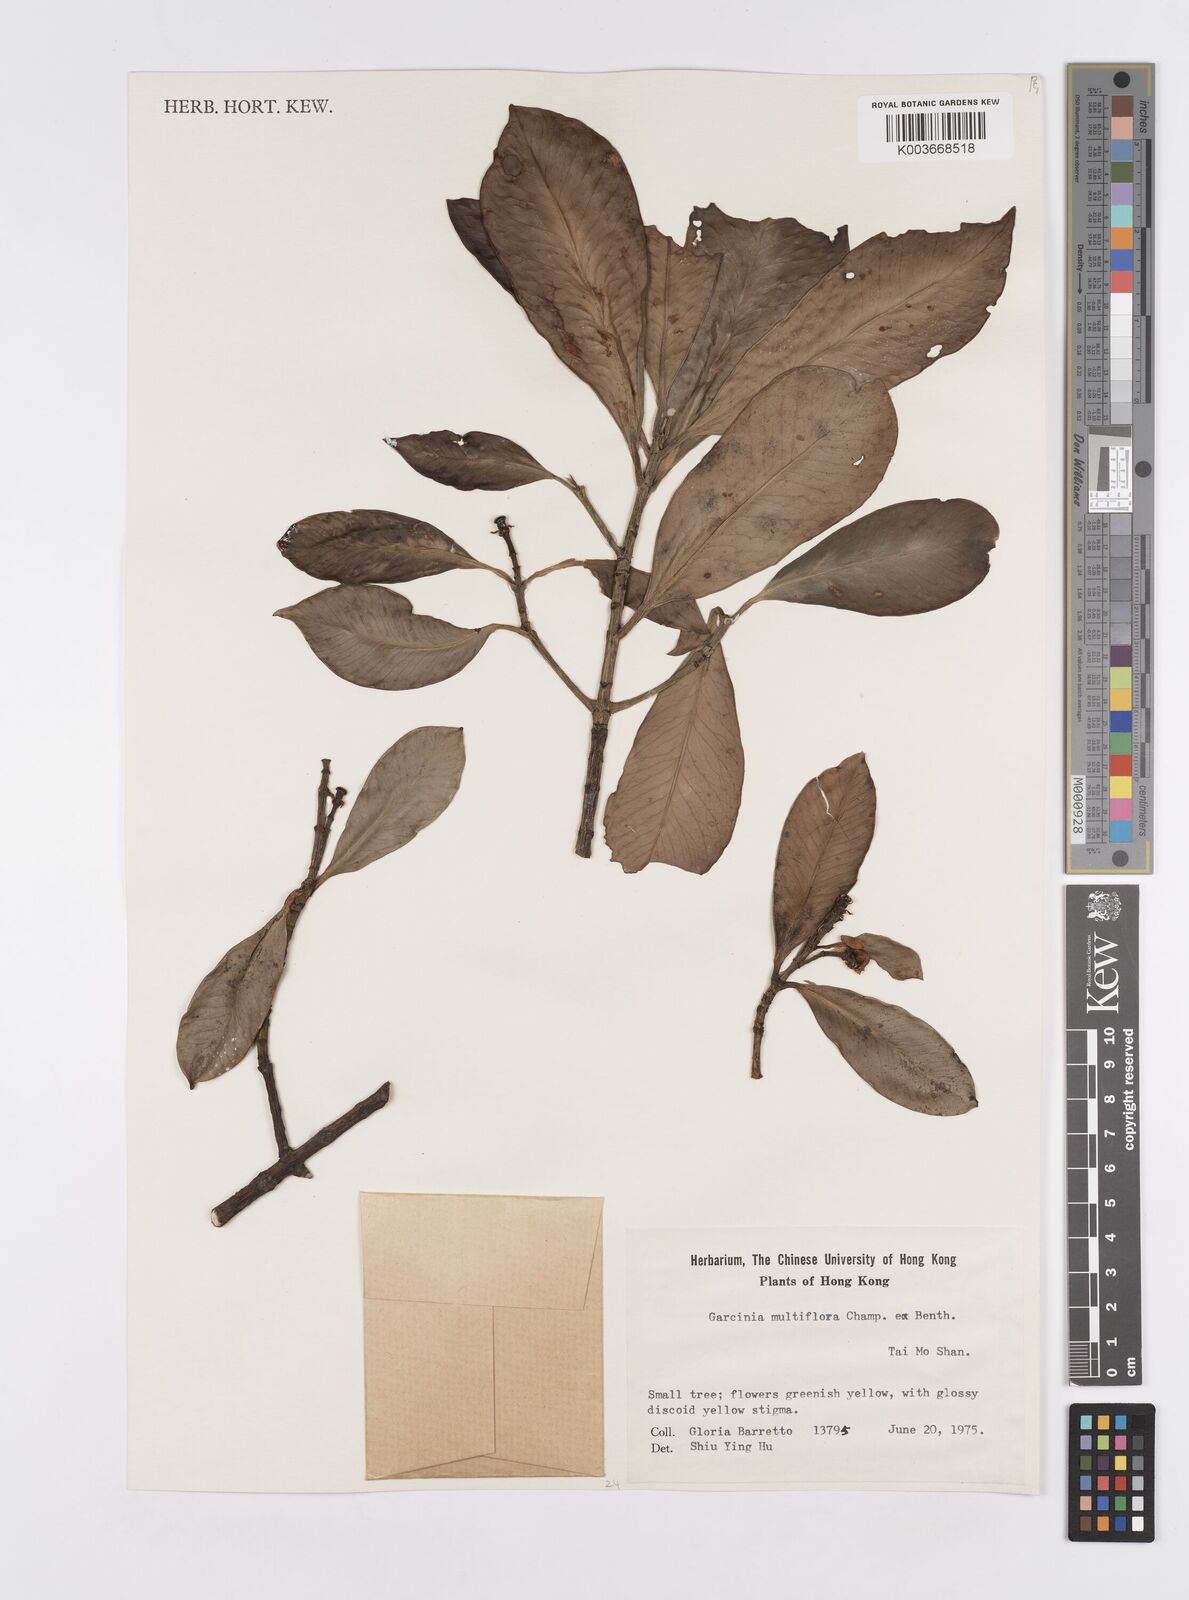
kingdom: Plantae
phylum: Tracheophyta
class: Magnoliopsida
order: Malpighiales
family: Clusiaceae
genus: Garcinia
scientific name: Garcinia multiflora
